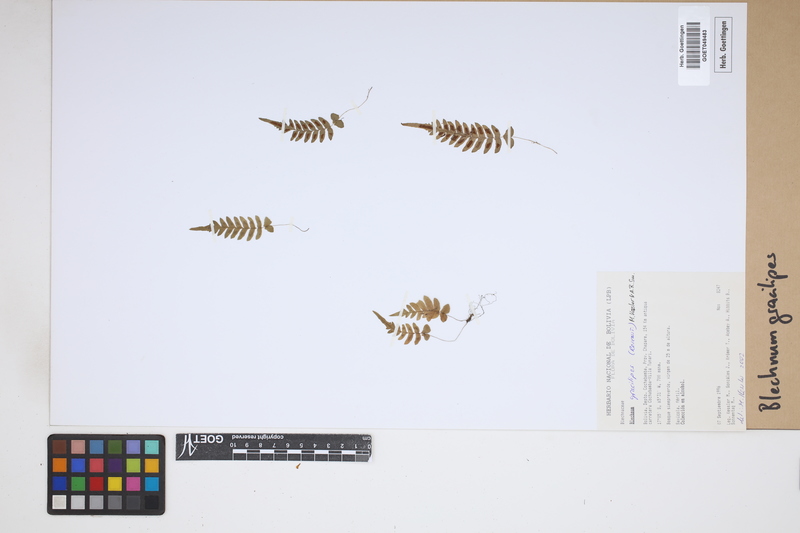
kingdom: Plantae
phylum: Tracheophyta
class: Polypodiopsida
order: Polypodiales
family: Blechnaceae
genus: Blechnum
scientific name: Blechnum gracilipes
